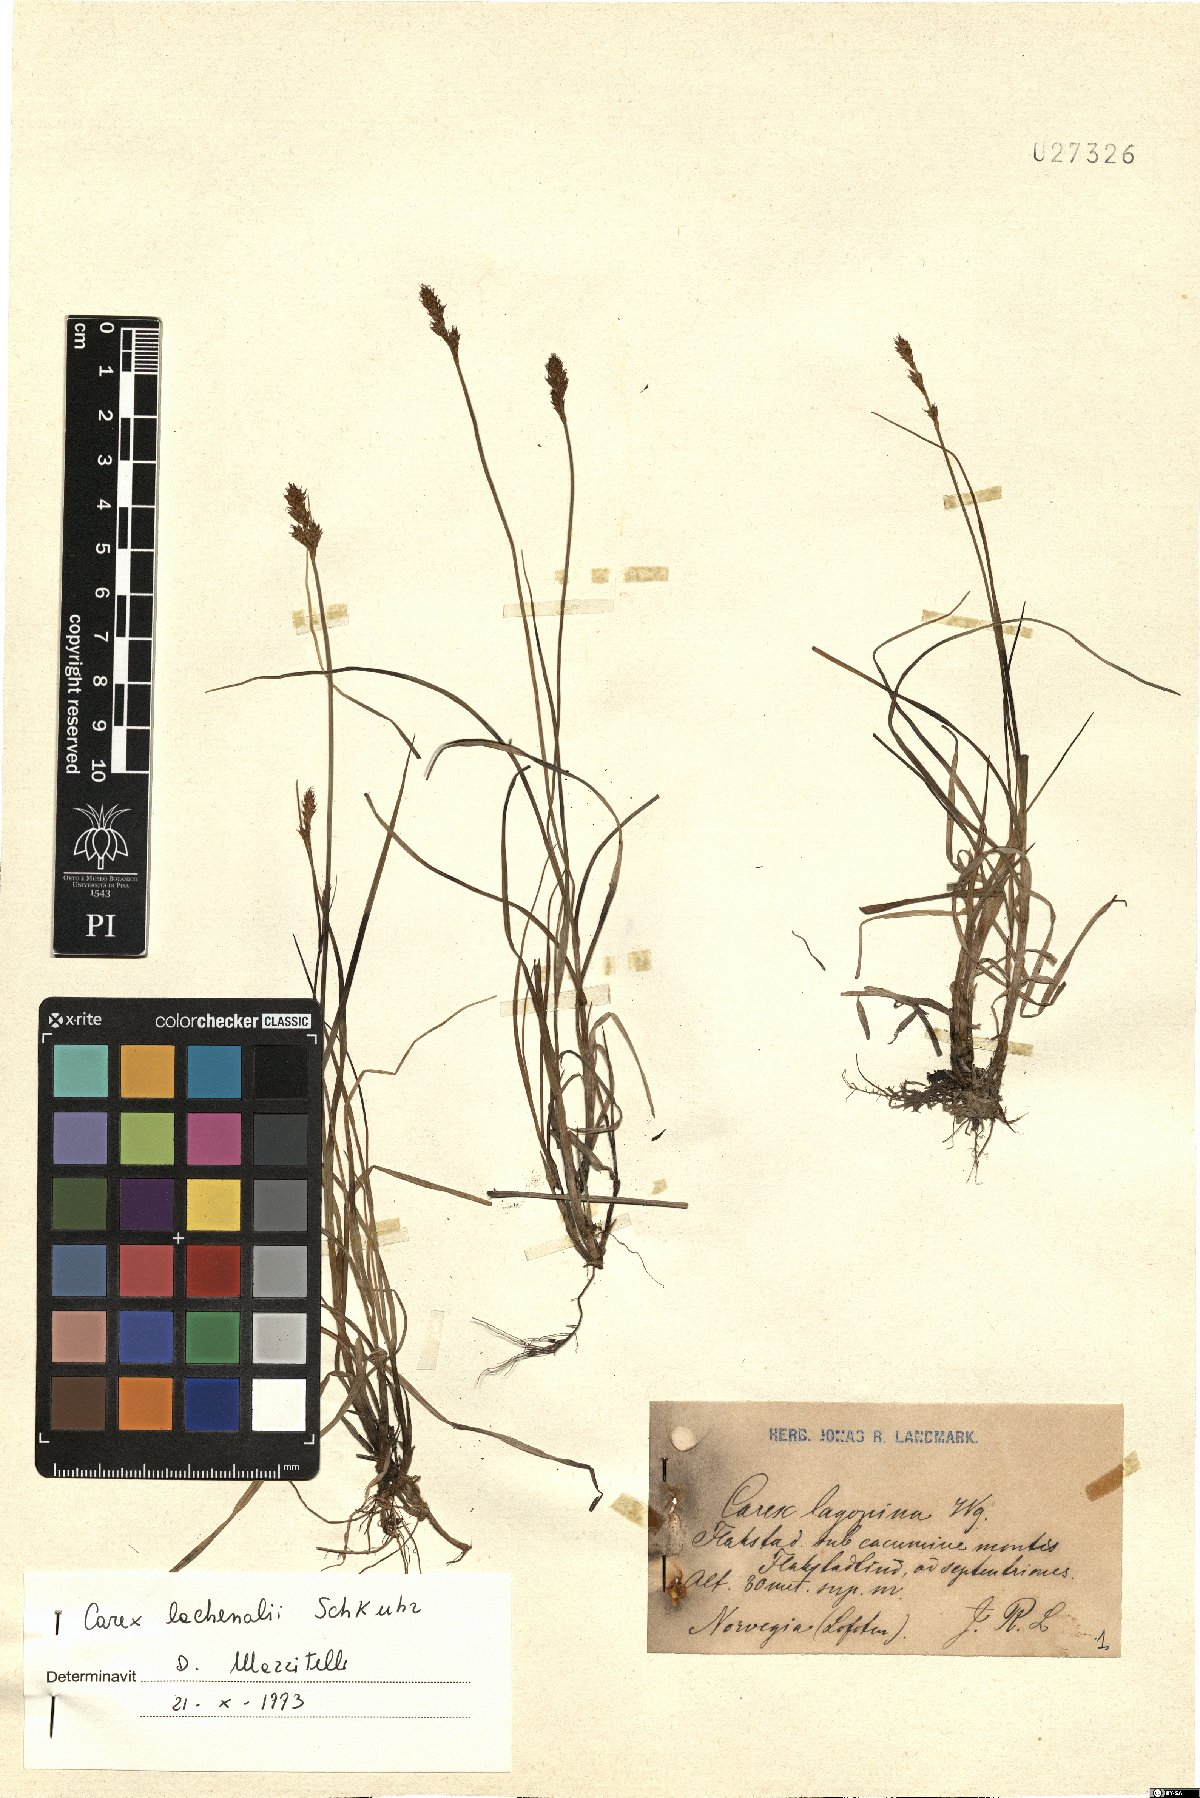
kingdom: Plantae
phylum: Tracheophyta
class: Liliopsida
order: Poales
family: Cyperaceae
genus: Carex
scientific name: Carex lachenalii
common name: Hare's-foot sedge
